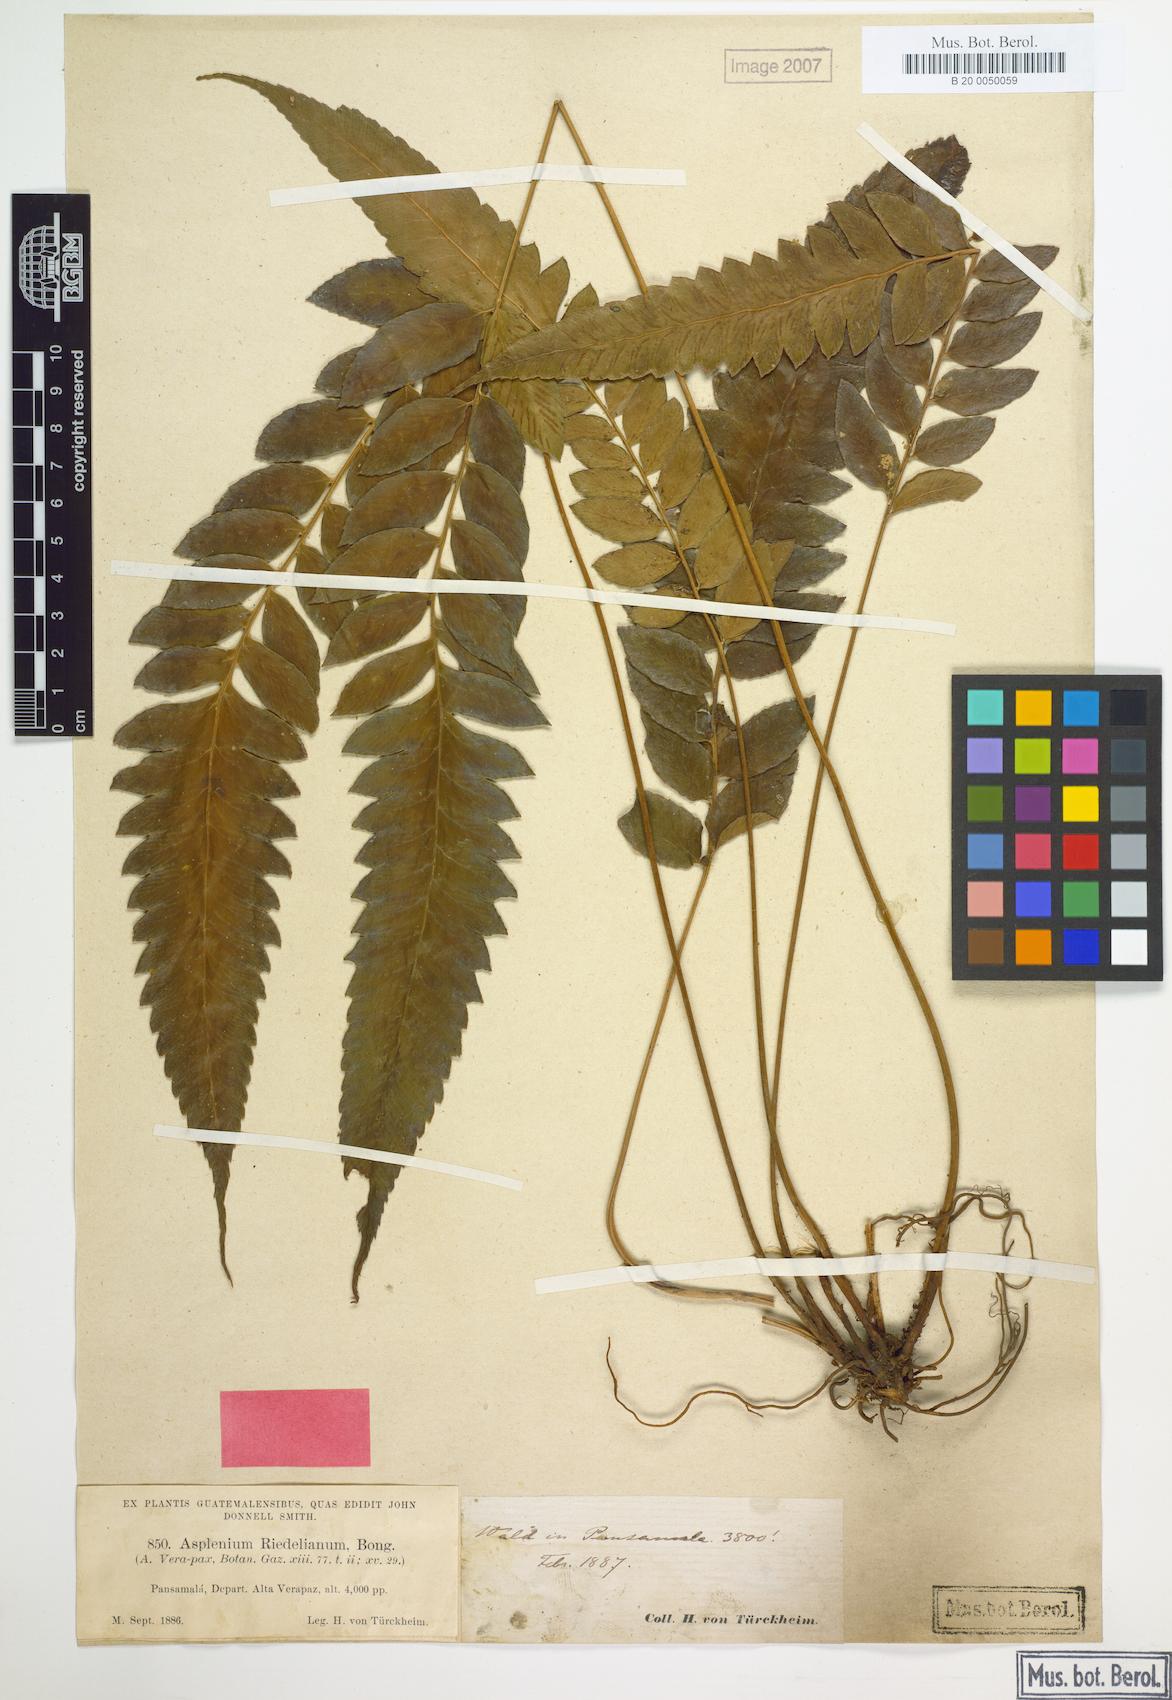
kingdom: Plantae
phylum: Tracheophyta
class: Polypodiopsida
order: Polypodiales
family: Athyriaceae
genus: Diplazium
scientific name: Diplazium verapax
